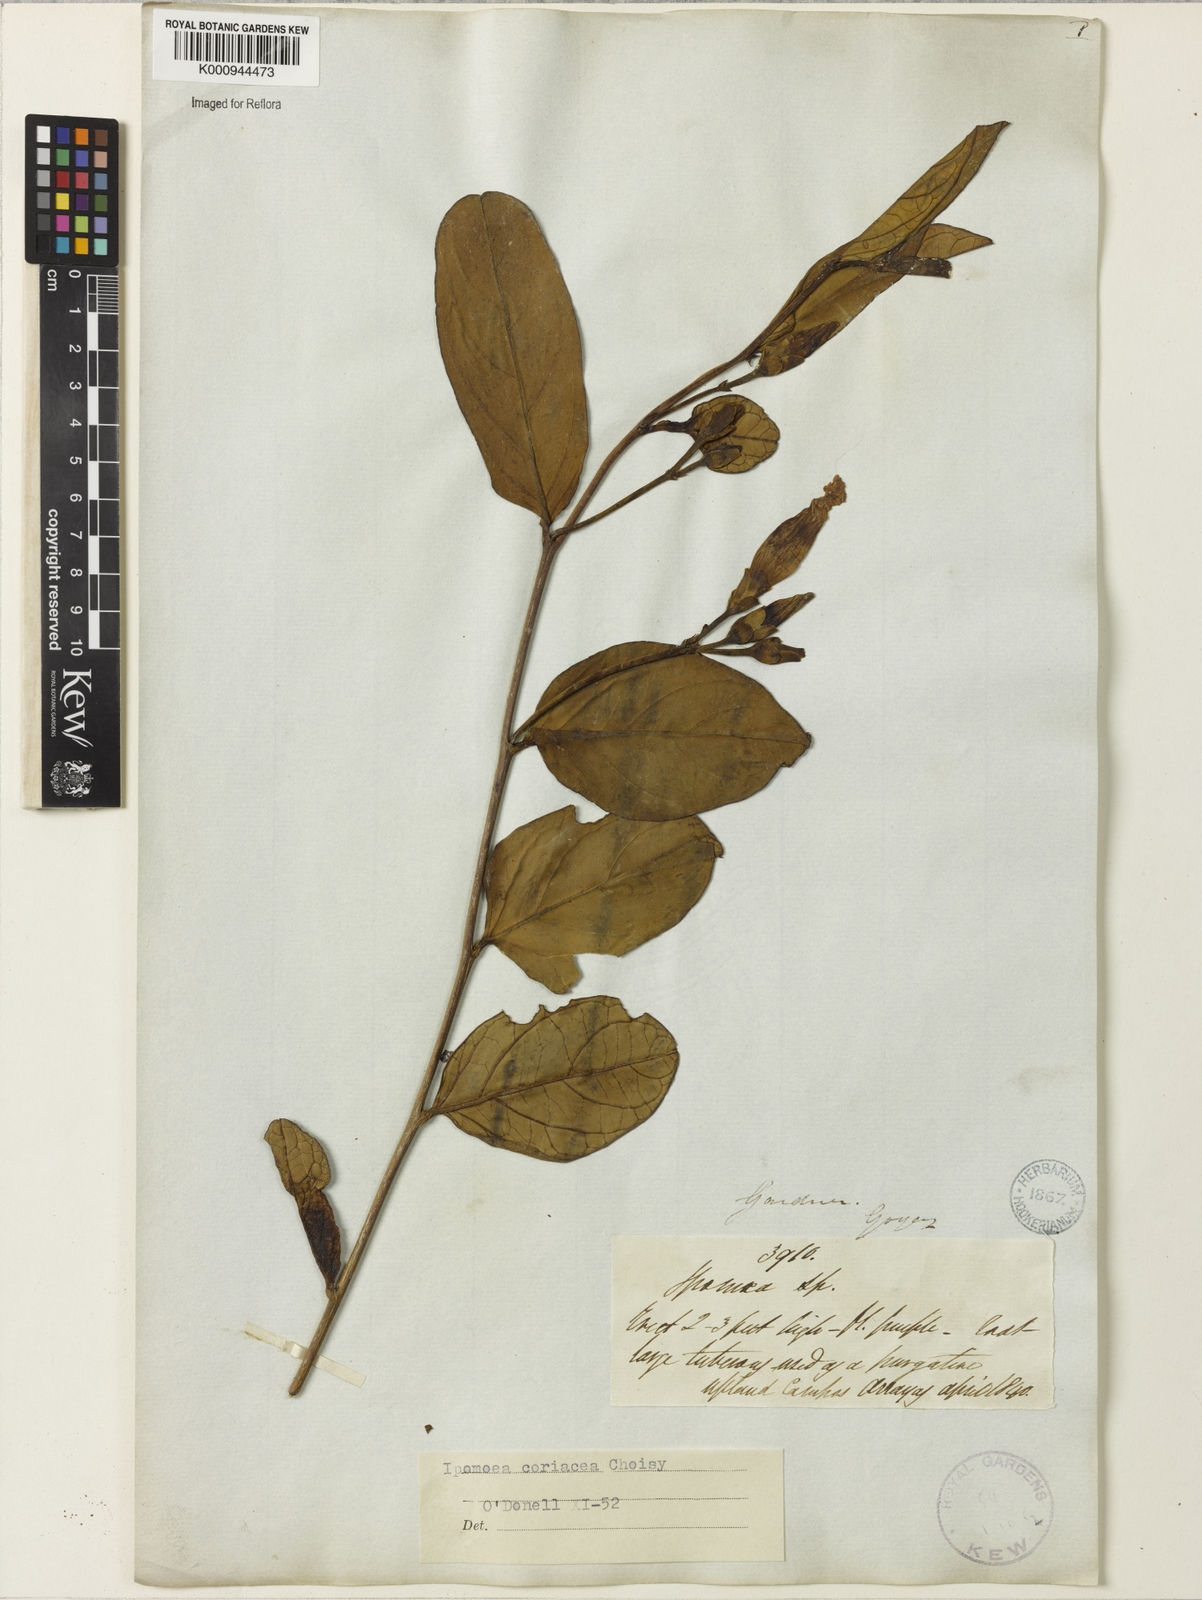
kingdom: Plantae
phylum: Tracheophyta
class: Magnoliopsida
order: Solanales
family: Convolvulaceae
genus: Ipomoea
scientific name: Ipomoea coriacea
